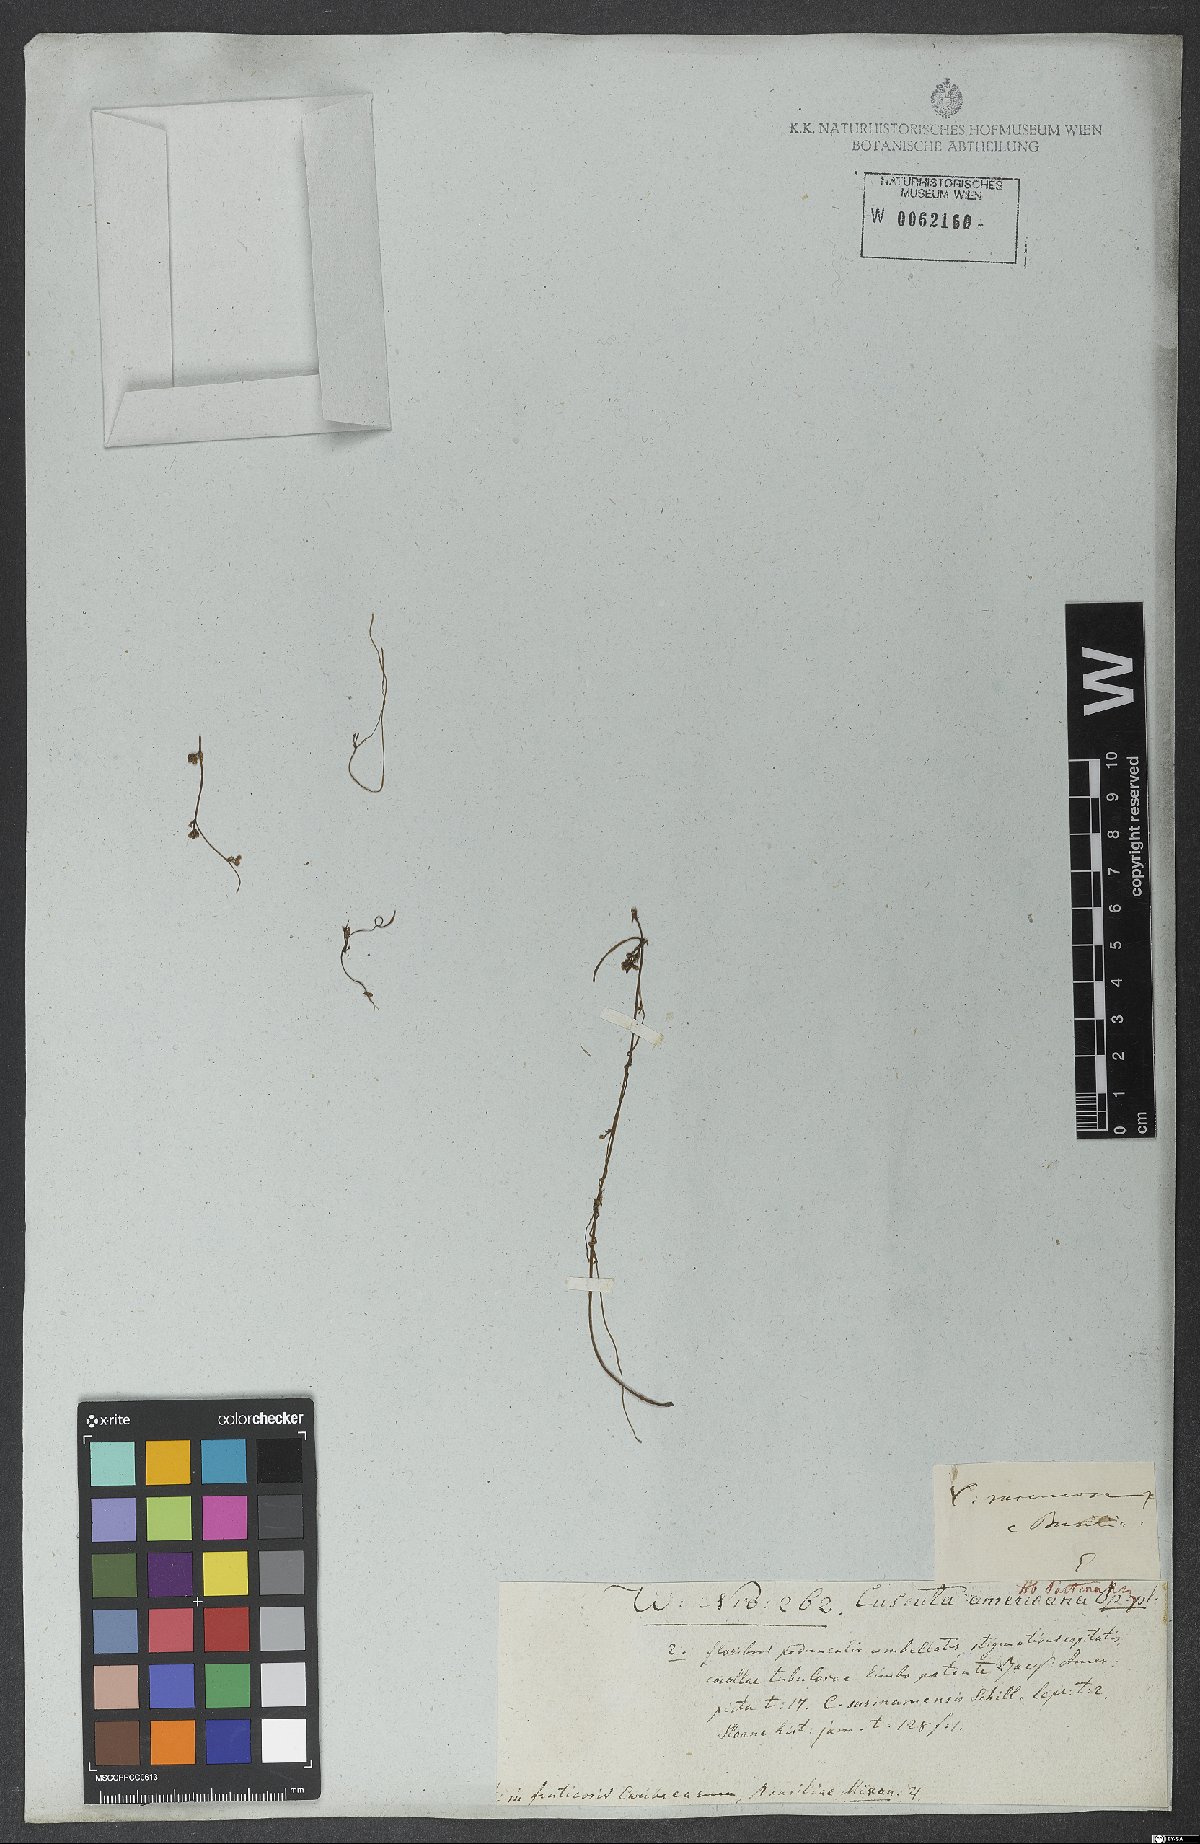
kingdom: Plantae
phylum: Tracheophyta
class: Magnoliopsida
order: Solanales
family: Convolvulaceae
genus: Cuscuta
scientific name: Cuscuta racemosa
